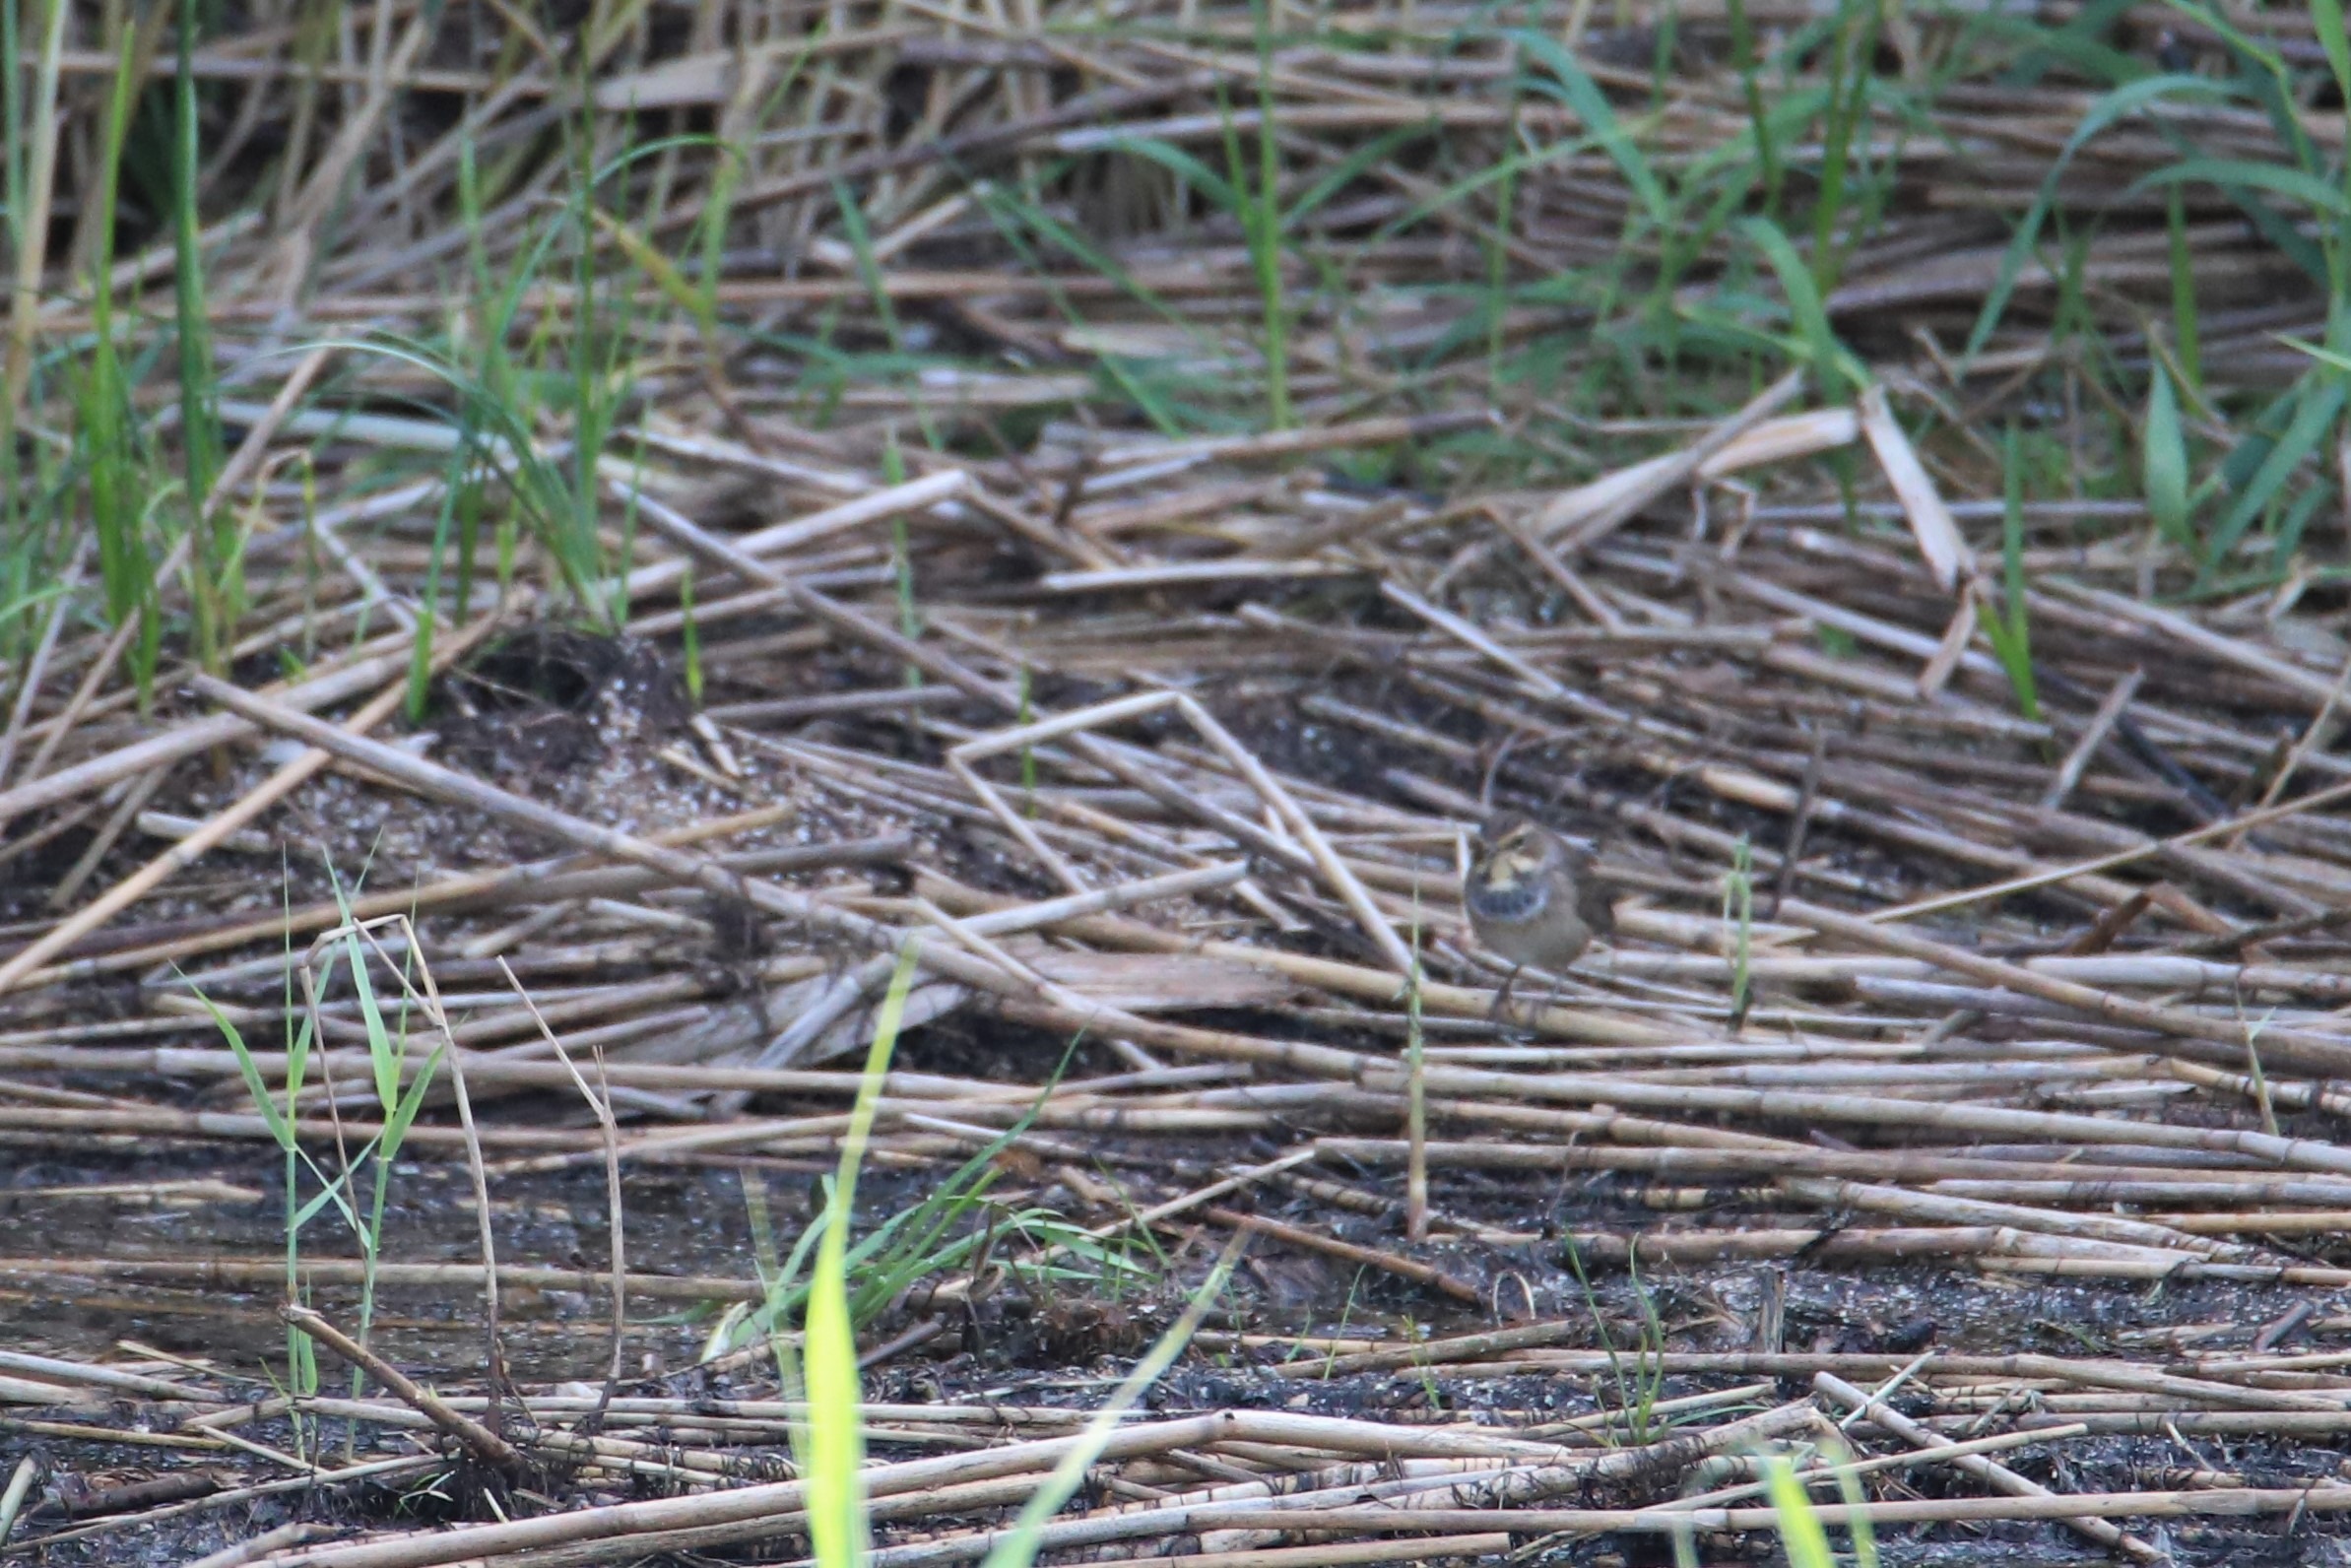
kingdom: Animalia
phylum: Chordata
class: Aves
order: Passeriformes
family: Muscicapidae
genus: Luscinia
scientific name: Luscinia svecica
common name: Blåhals
